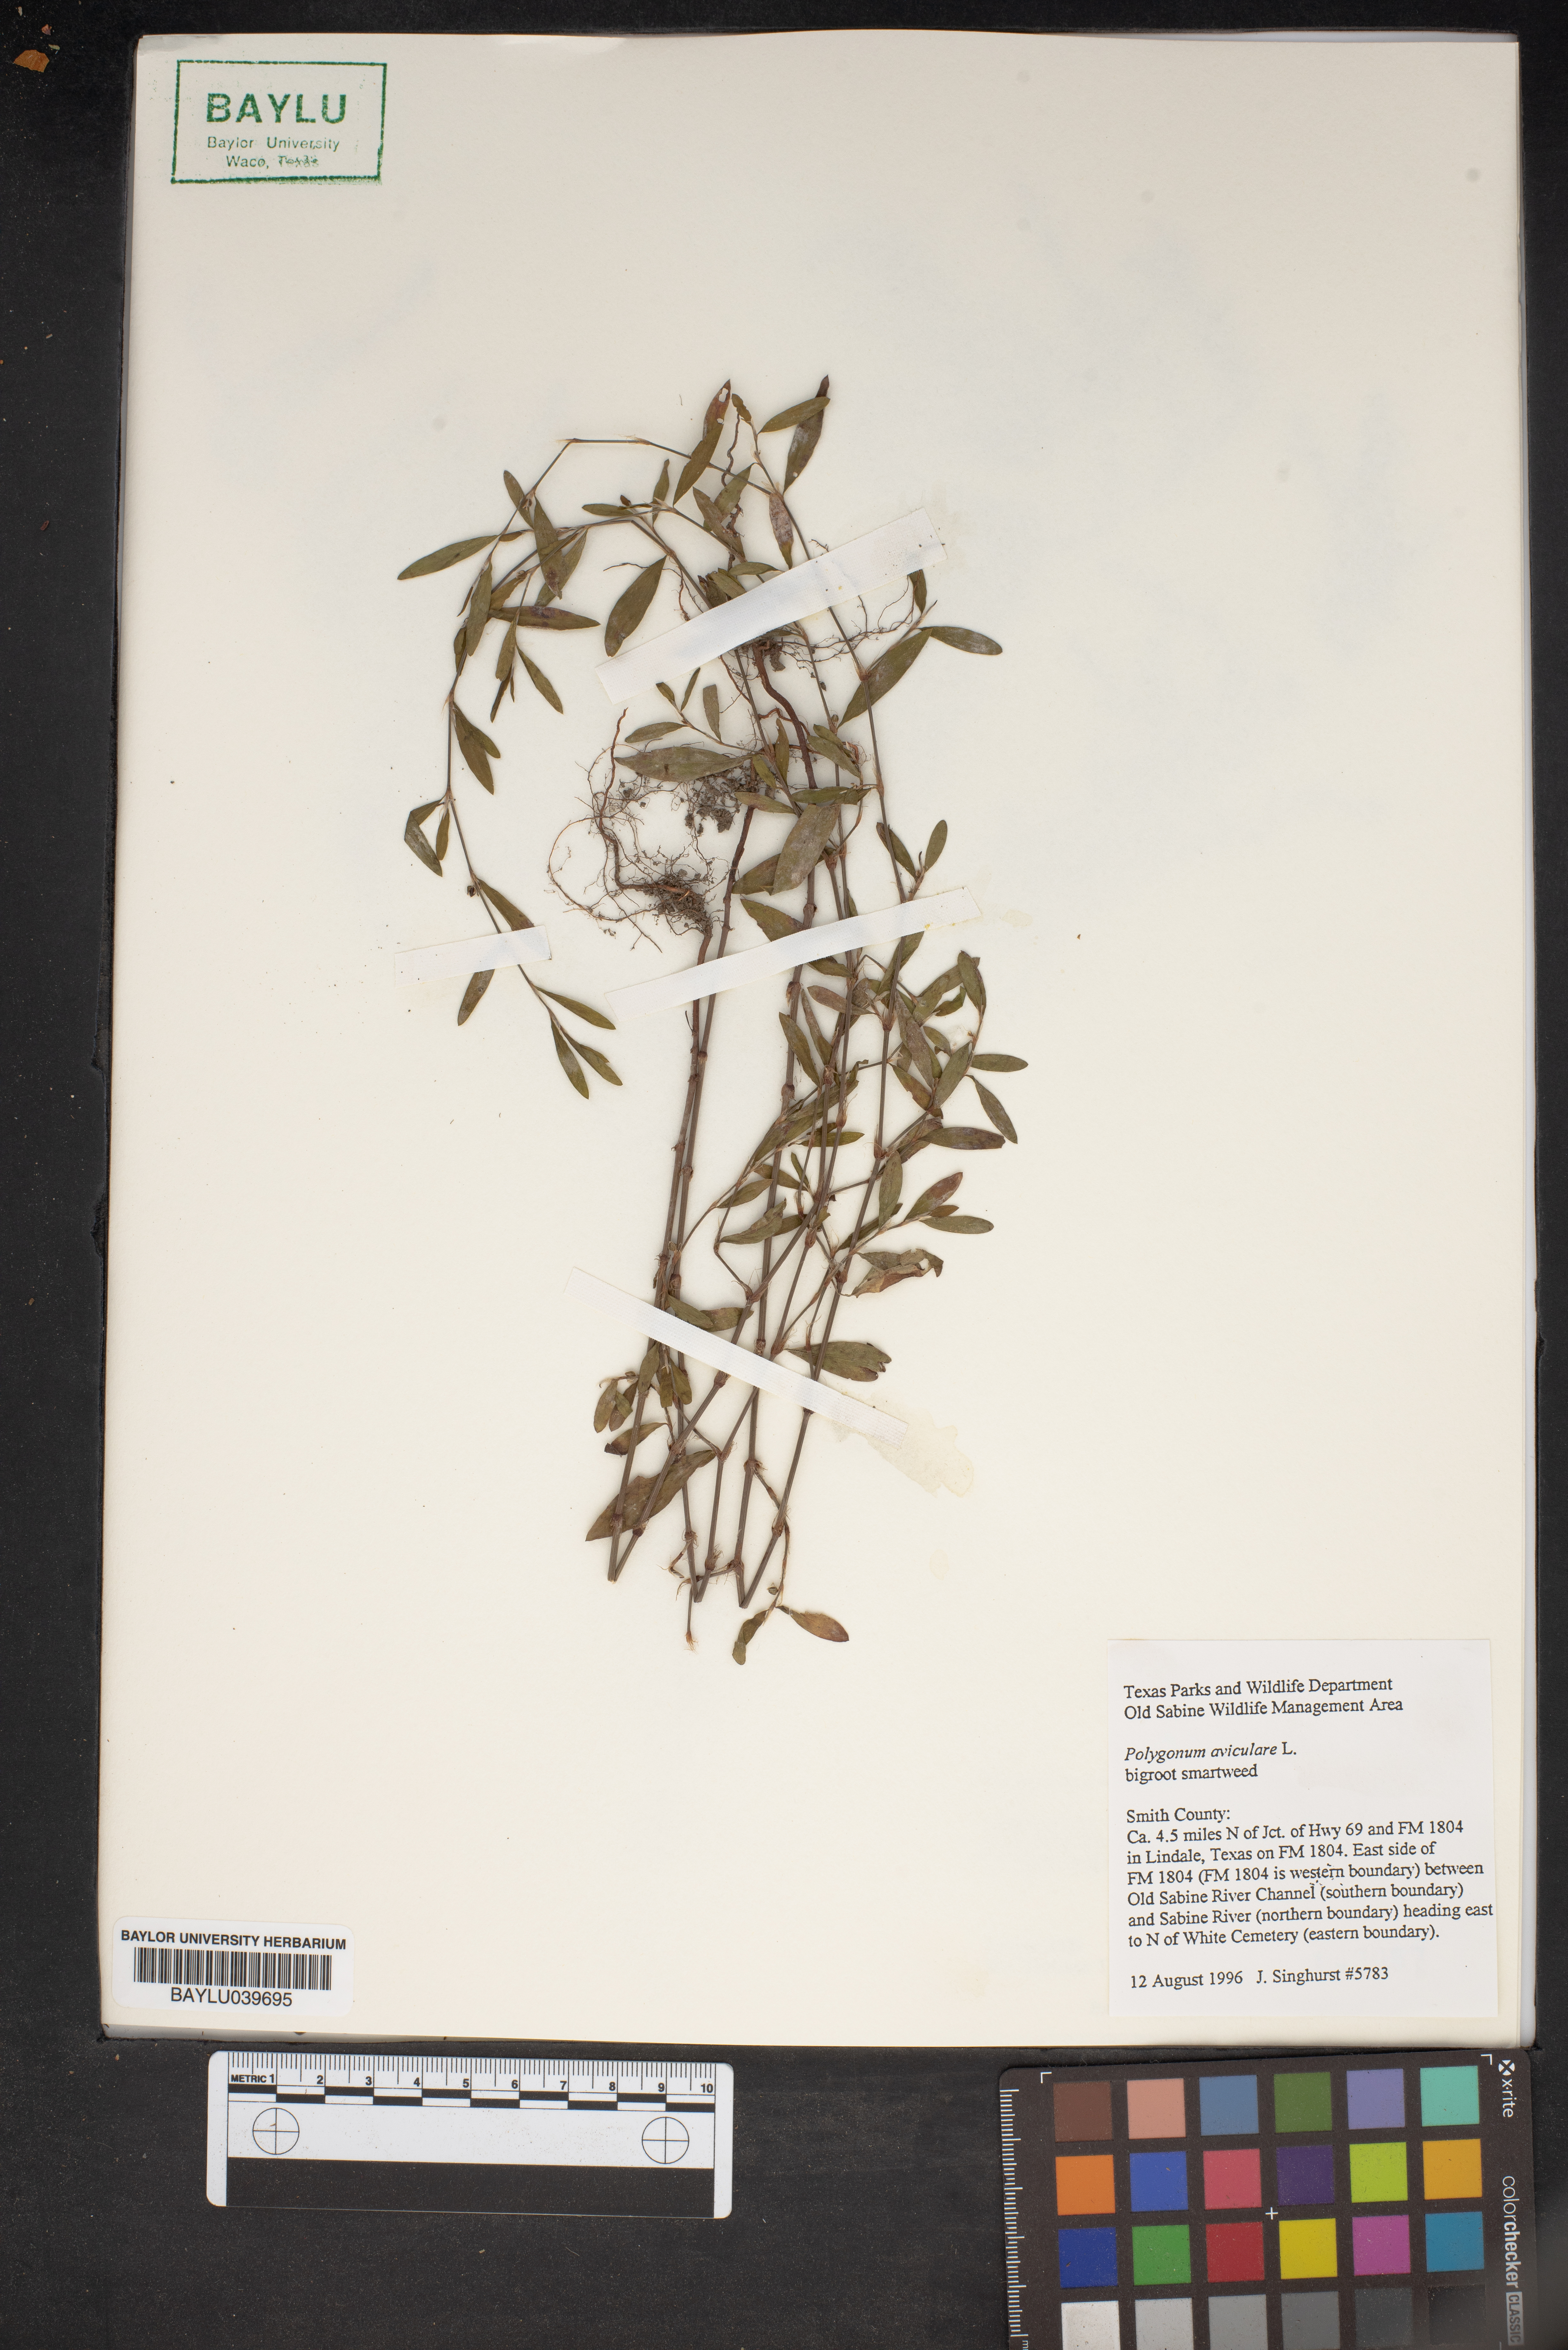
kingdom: Plantae
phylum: Tracheophyta
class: Magnoliopsida
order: Caryophyllales
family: Polygonaceae
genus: Polygonum
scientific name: Polygonum aviculare
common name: Prostrate knotweed
